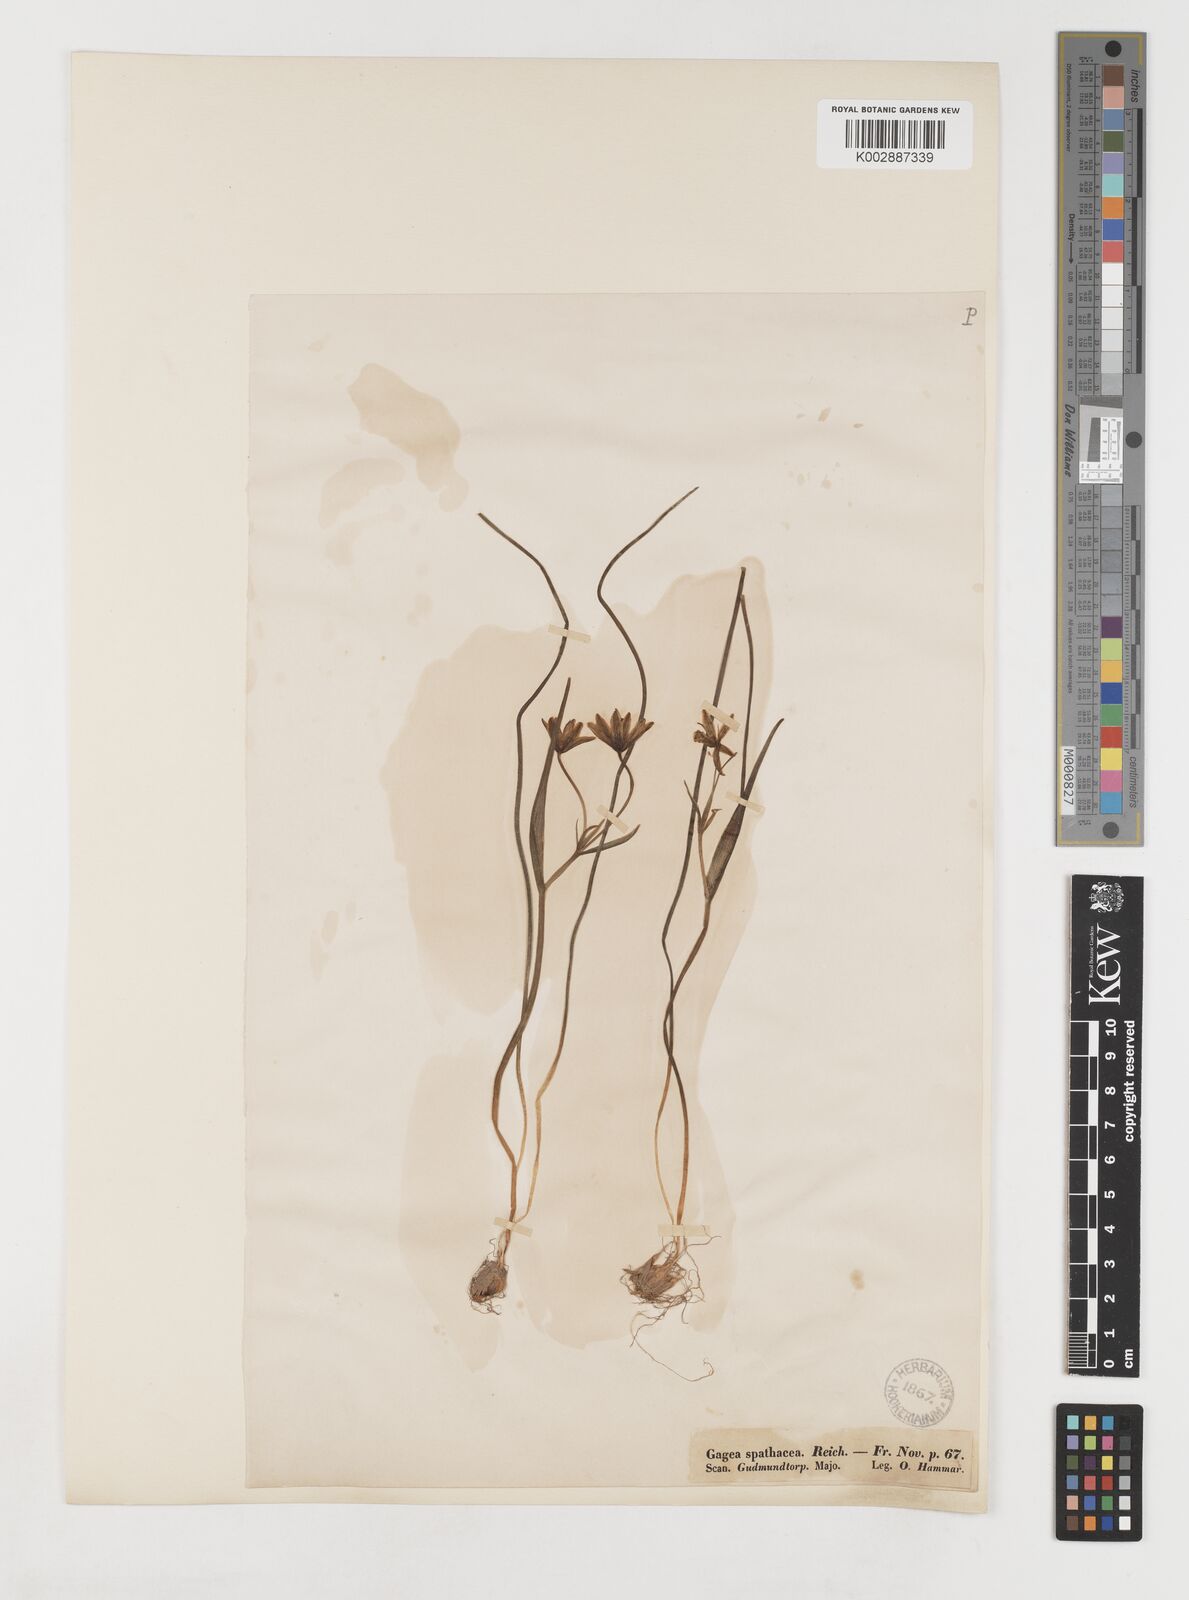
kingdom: Plantae
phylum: Tracheophyta
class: Liliopsida
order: Liliales
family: Liliaceae
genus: Gagea
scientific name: Gagea spathacea
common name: Belgian gagea
